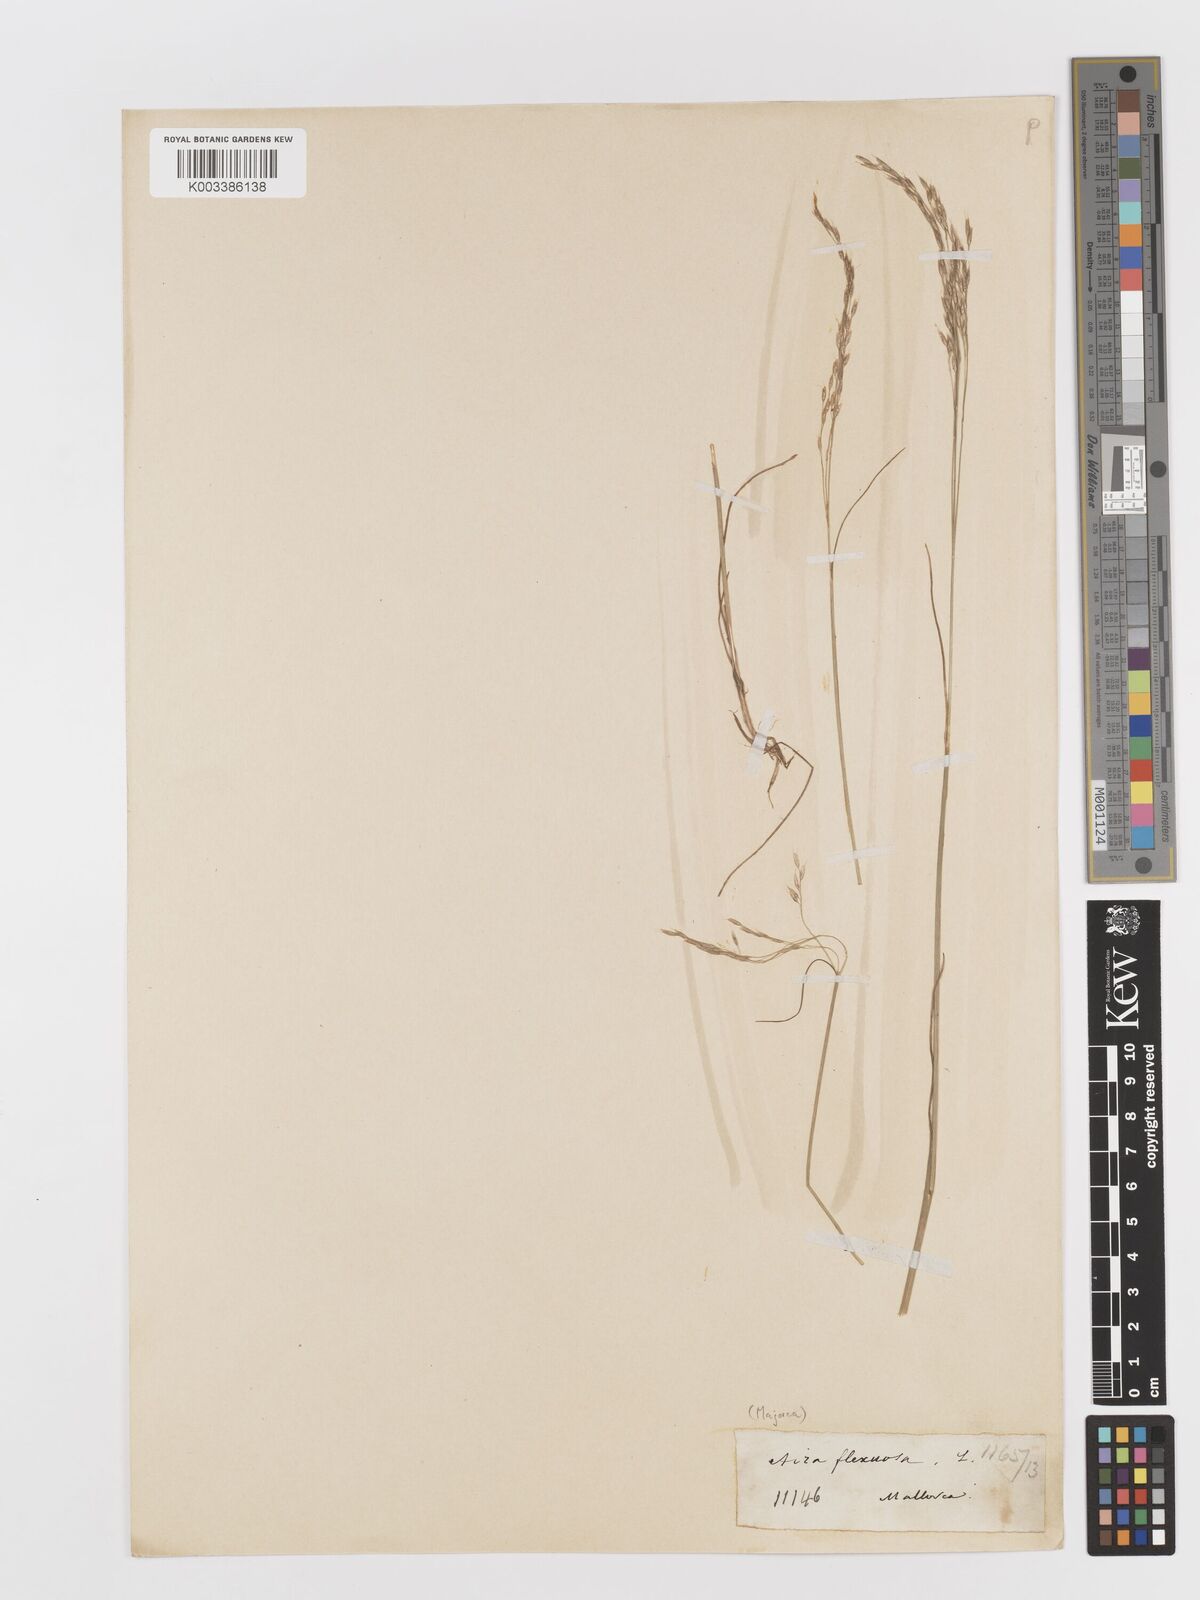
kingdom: Plantae
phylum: Tracheophyta
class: Liliopsida
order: Poales
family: Poaceae
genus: Avenella
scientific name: Avenella flexuosa
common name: Wavy hairgrass
